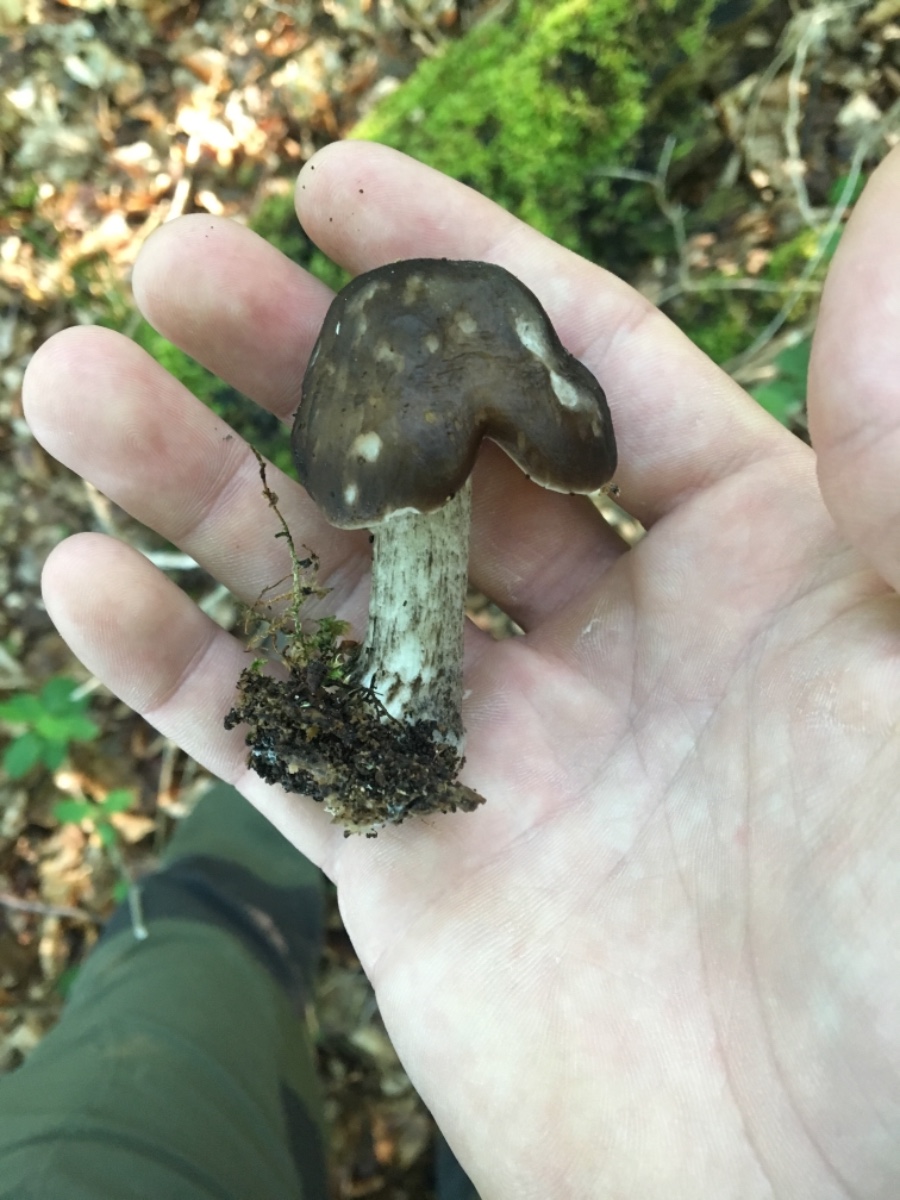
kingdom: Fungi
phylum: Basidiomycota
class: Agaricomycetes
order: Agaricales
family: Pluteaceae
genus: Pluteus
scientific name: Pluteus
